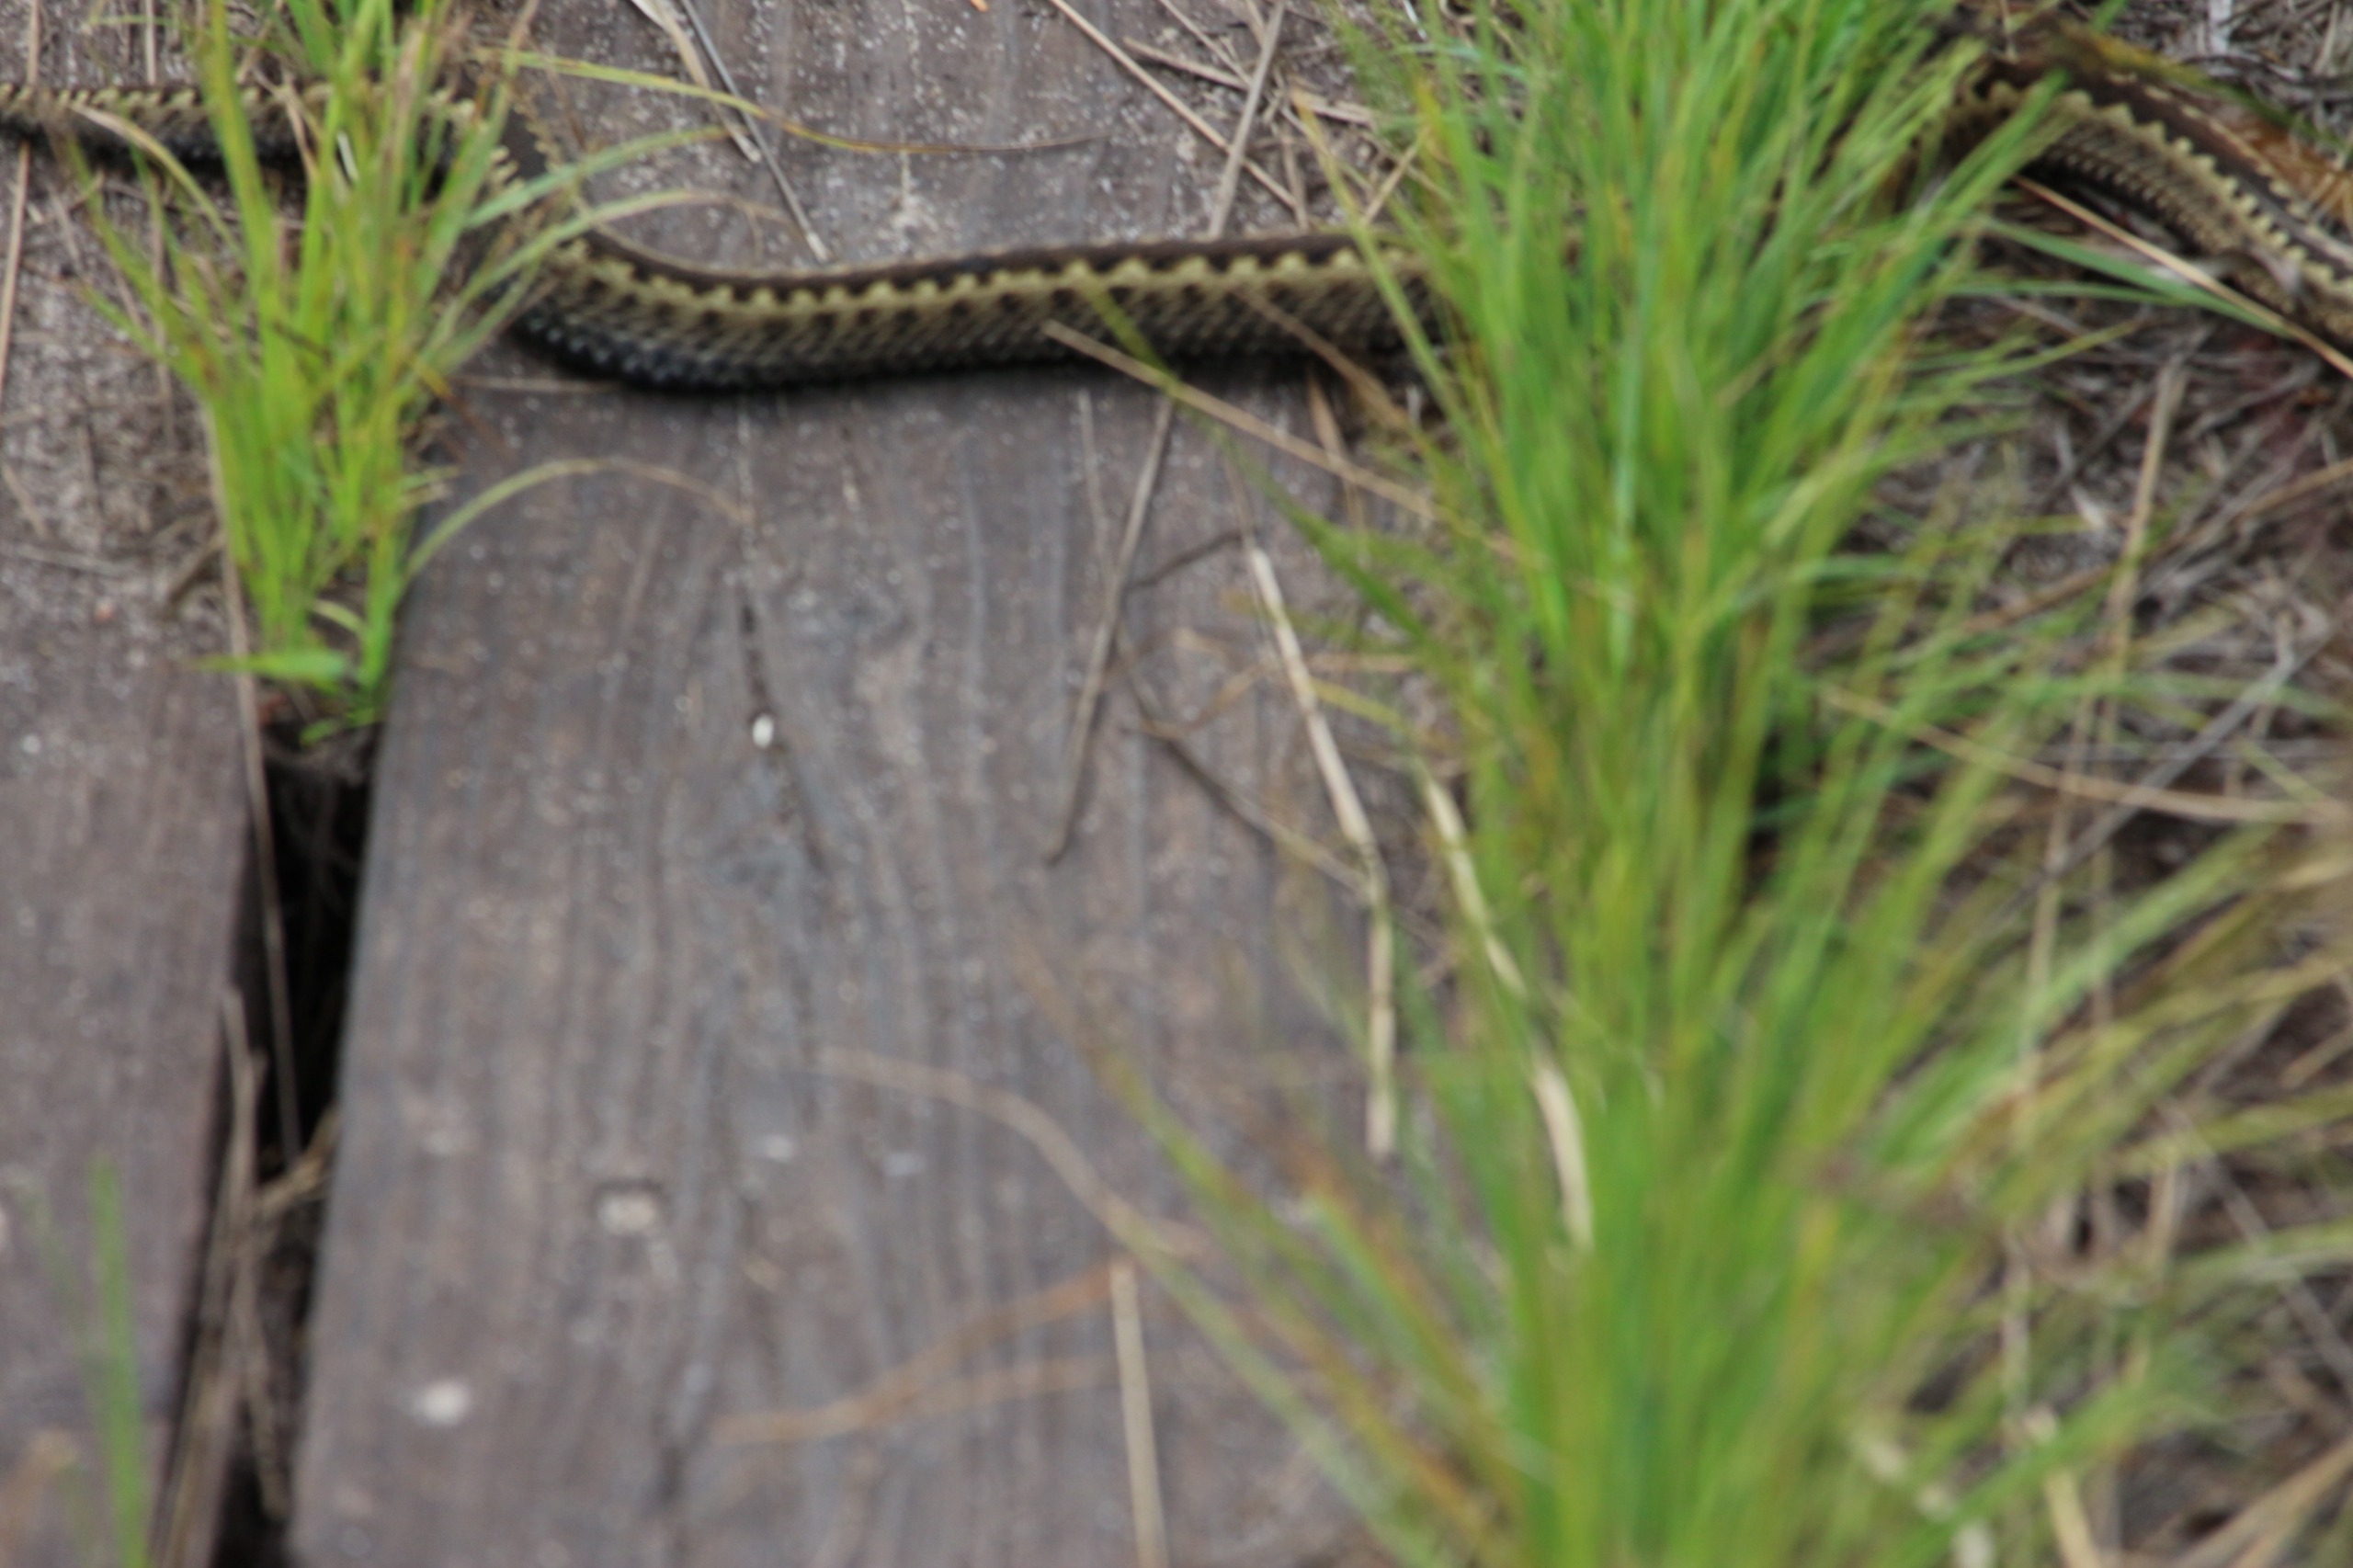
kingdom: Animalia
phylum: Chordata
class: Squamata
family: Viperidae
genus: Vipera
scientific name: Vipera berus
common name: Hugorm
